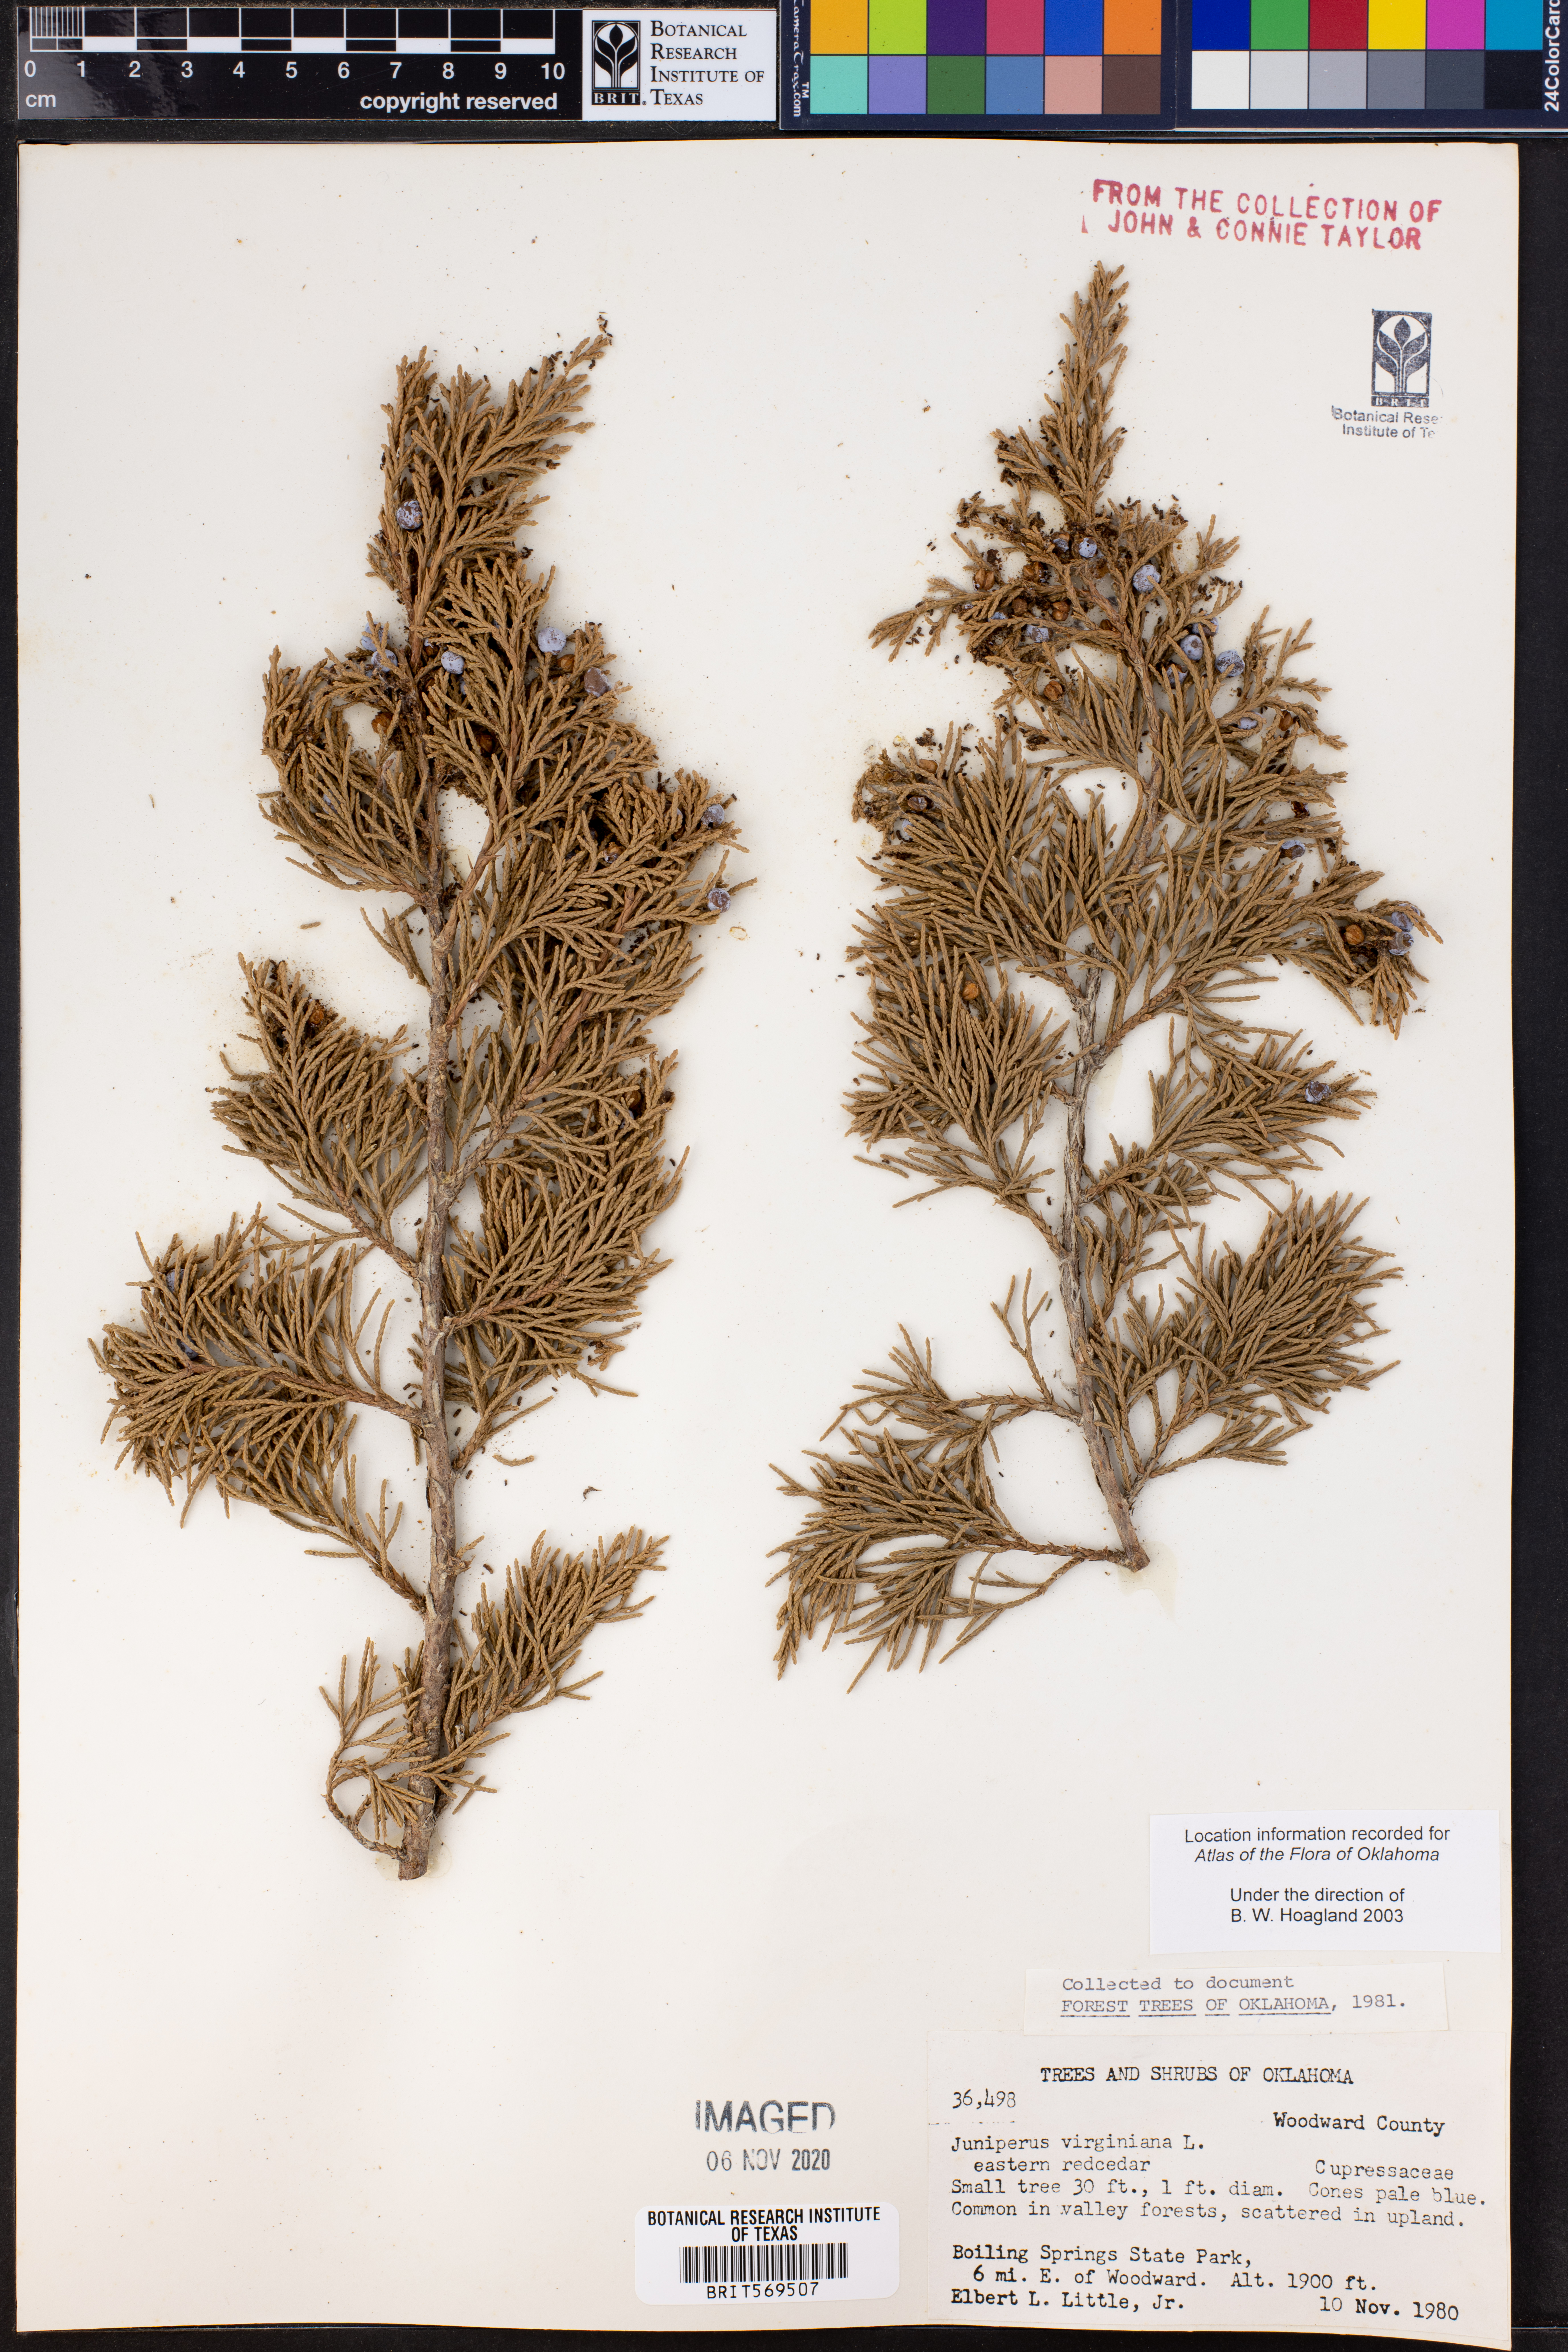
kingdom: Plantae
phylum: Tracheophyta
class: Pinopsida
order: Pinales
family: Cupressaceae
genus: Juniperus
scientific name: Juniperus virginiana
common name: Red juniper
